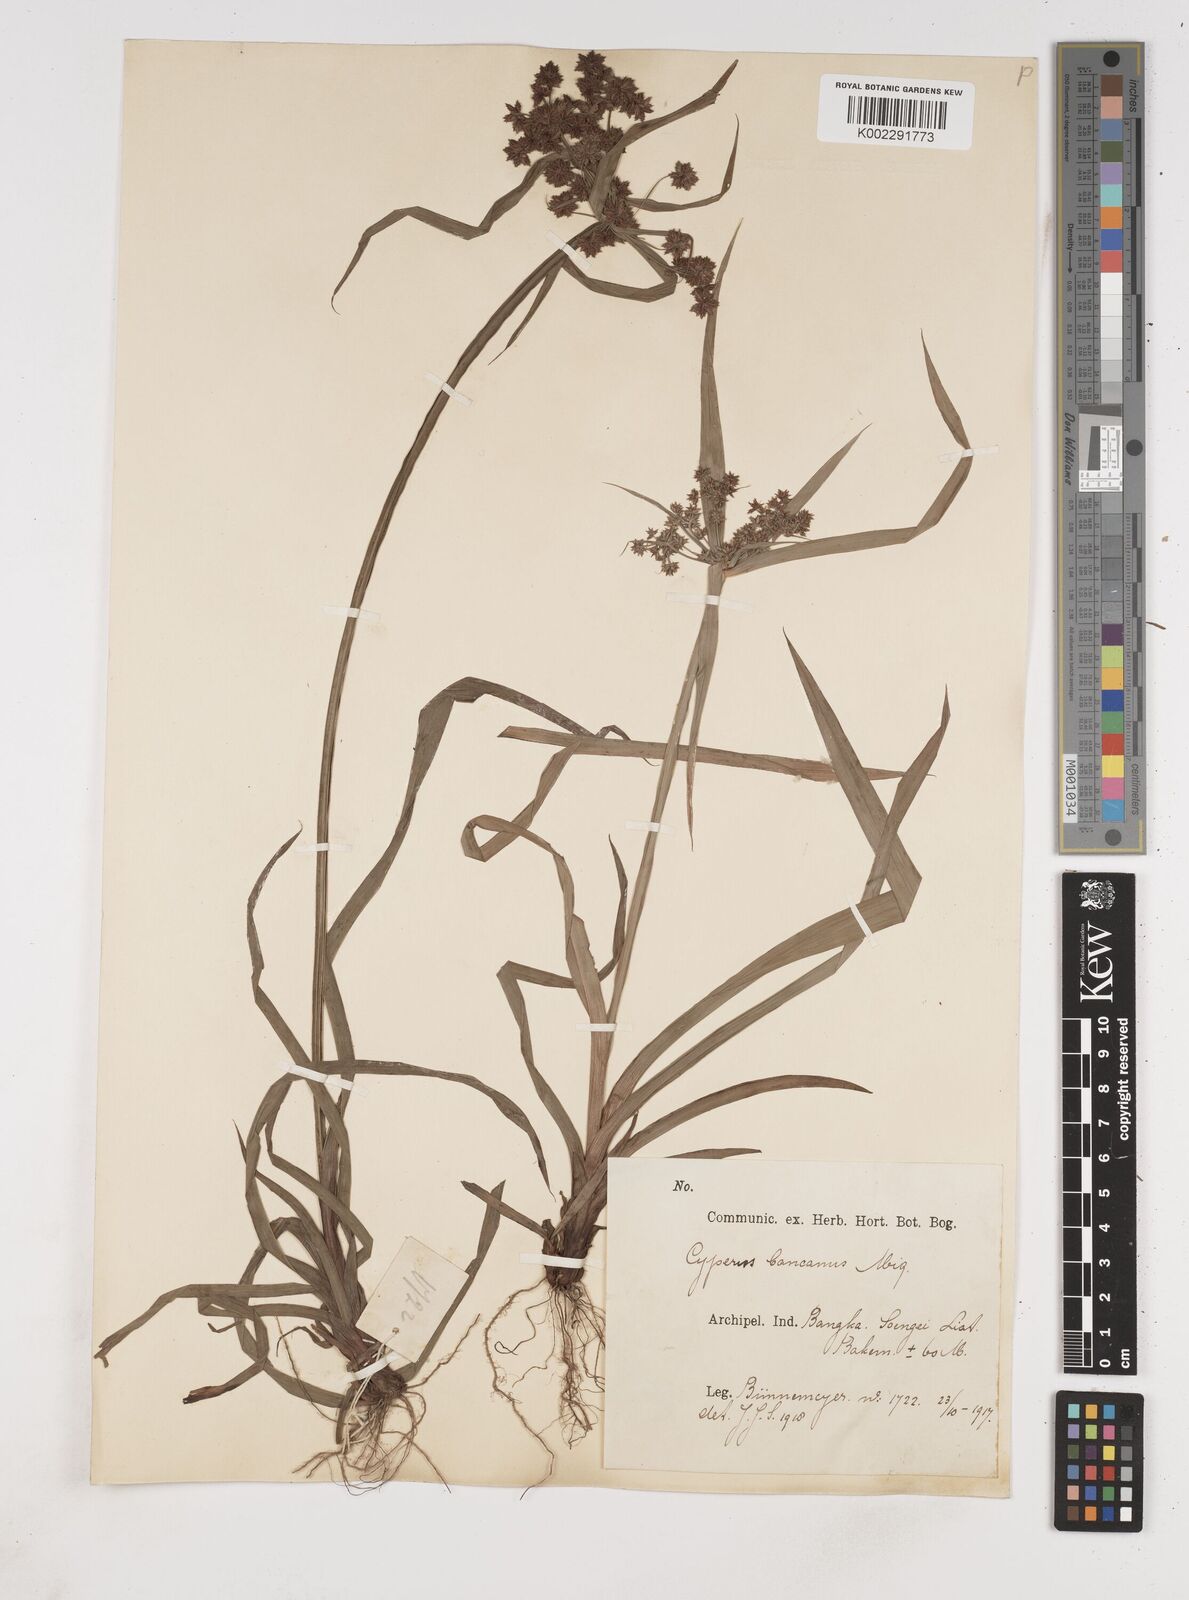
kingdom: Plantae
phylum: Tracheophyta
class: Liliopsida
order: Poales
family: Cyperaceae
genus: Cyperus
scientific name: Cyperus trialatus
